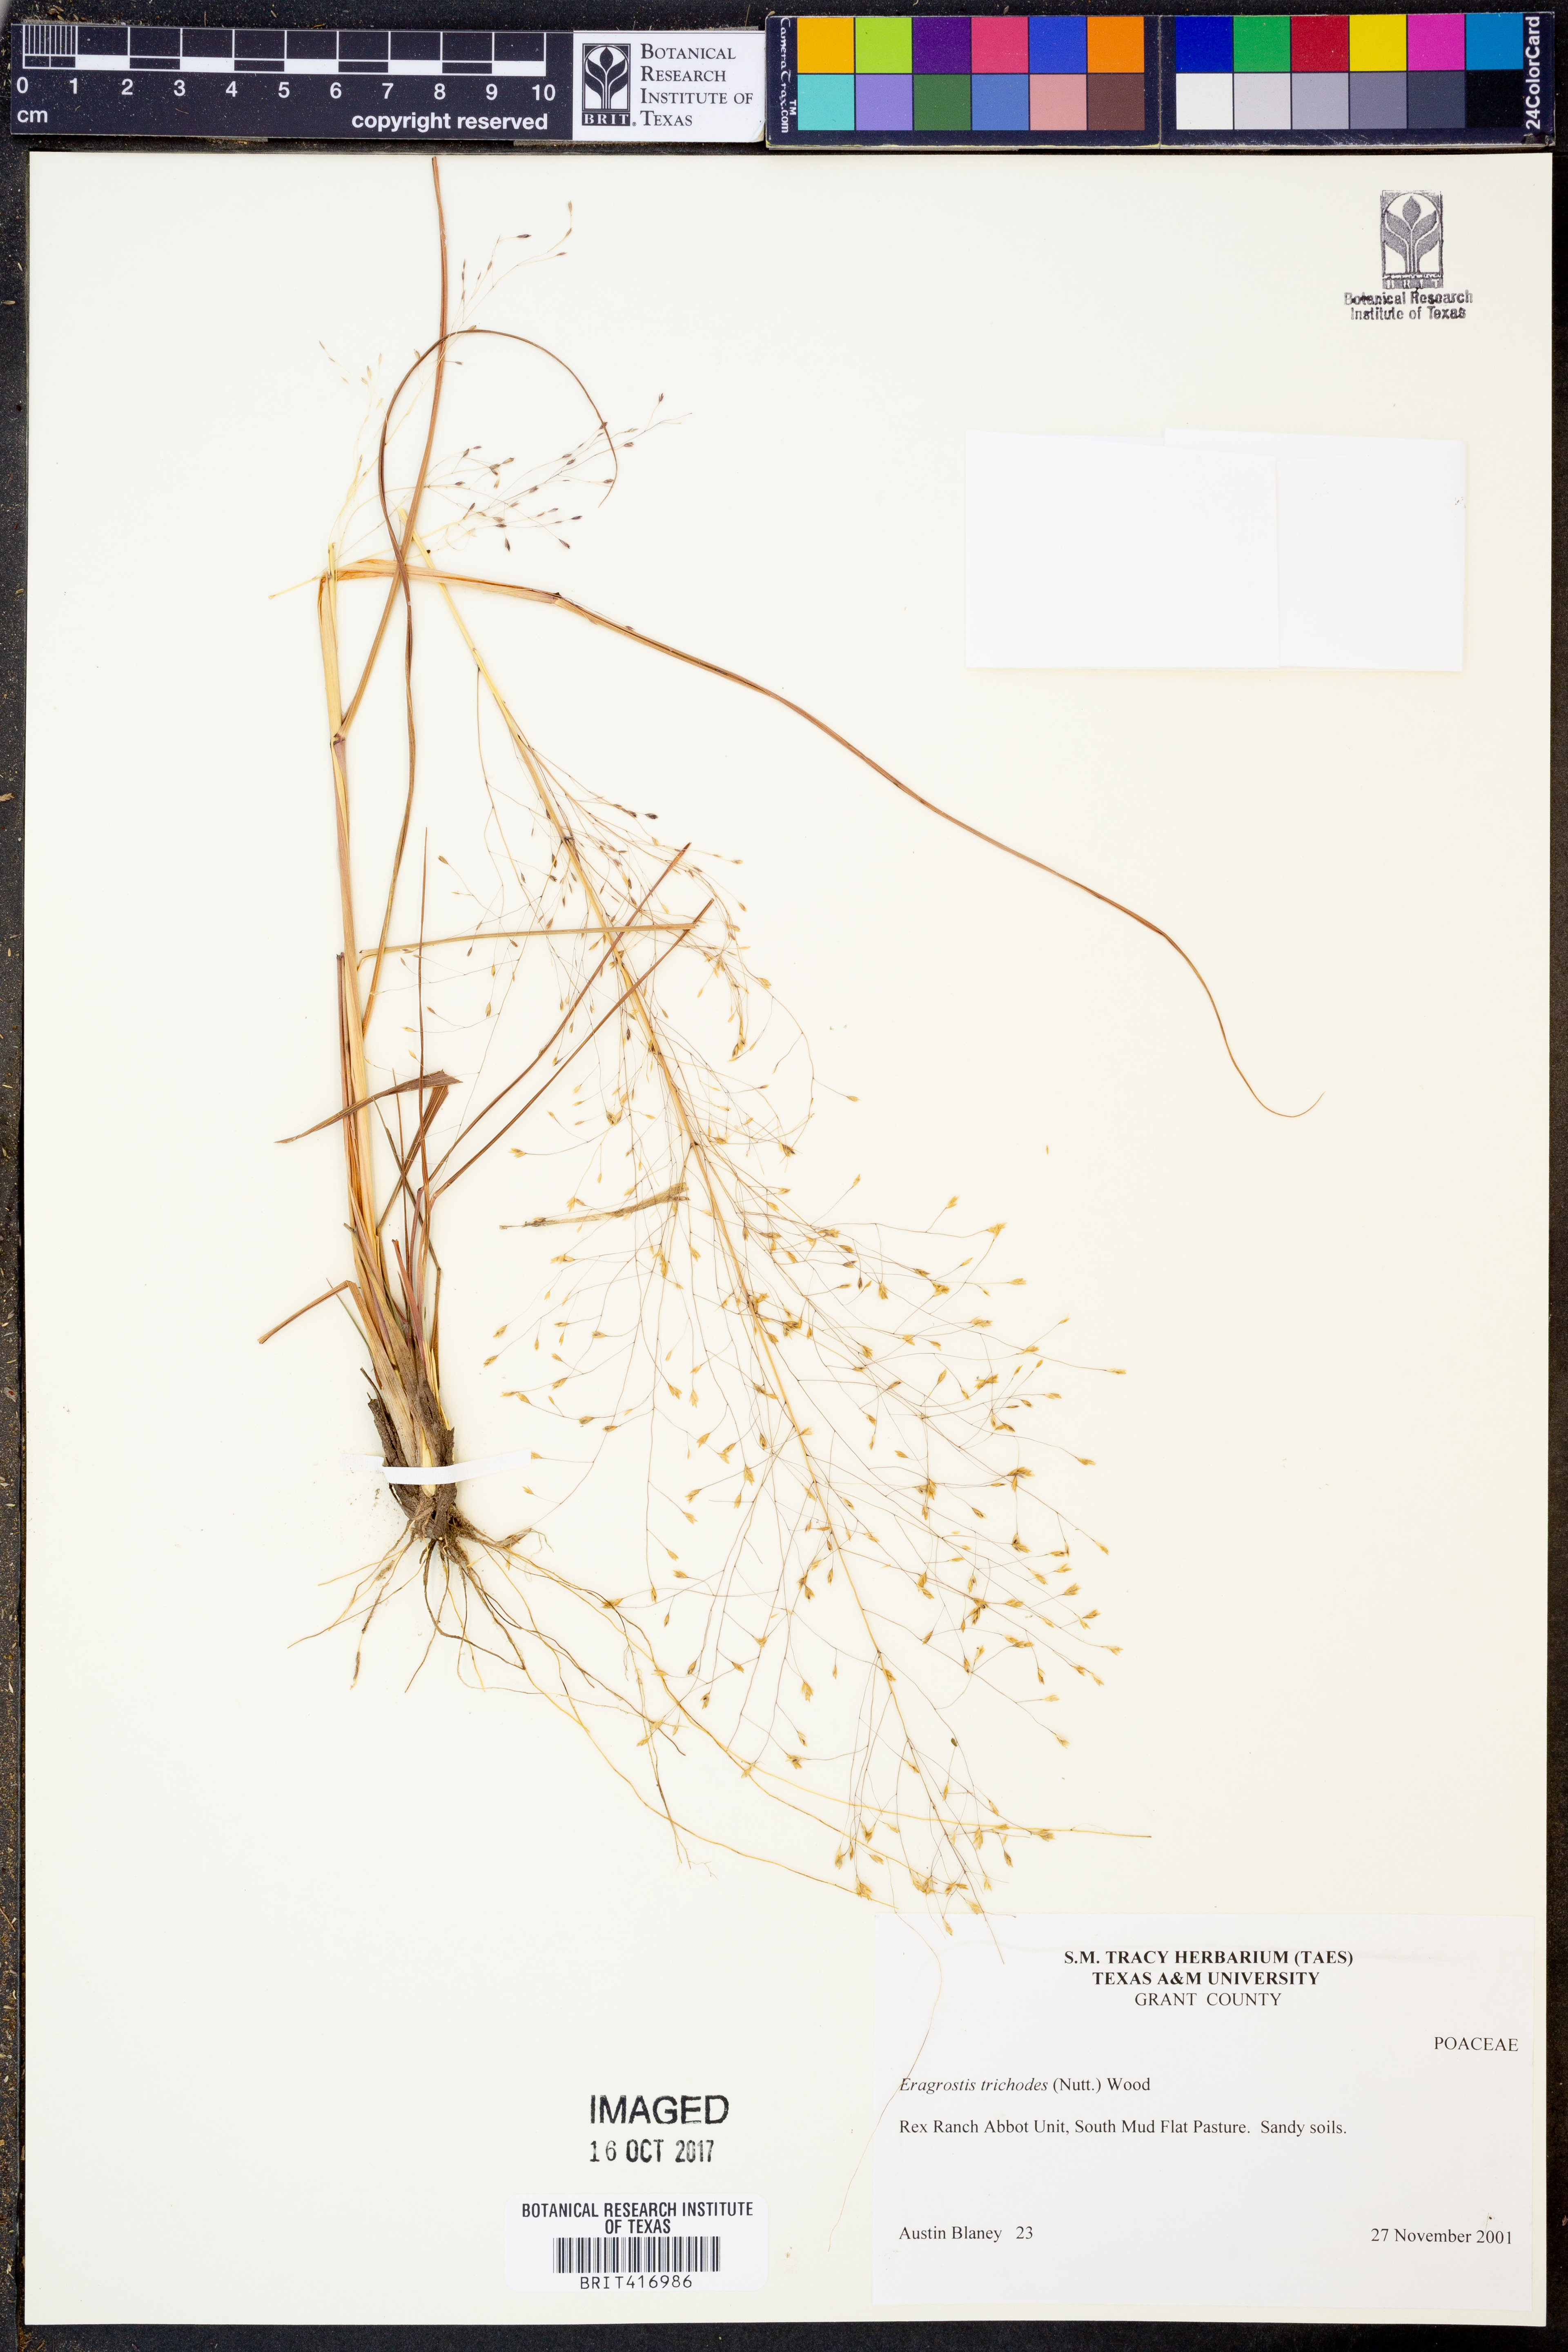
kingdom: Plantae
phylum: Tracheophyta
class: Liliopsida
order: Poales
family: Poaceae
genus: Eragrostis
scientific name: Eragrostis trichodes
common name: Sand love grass
